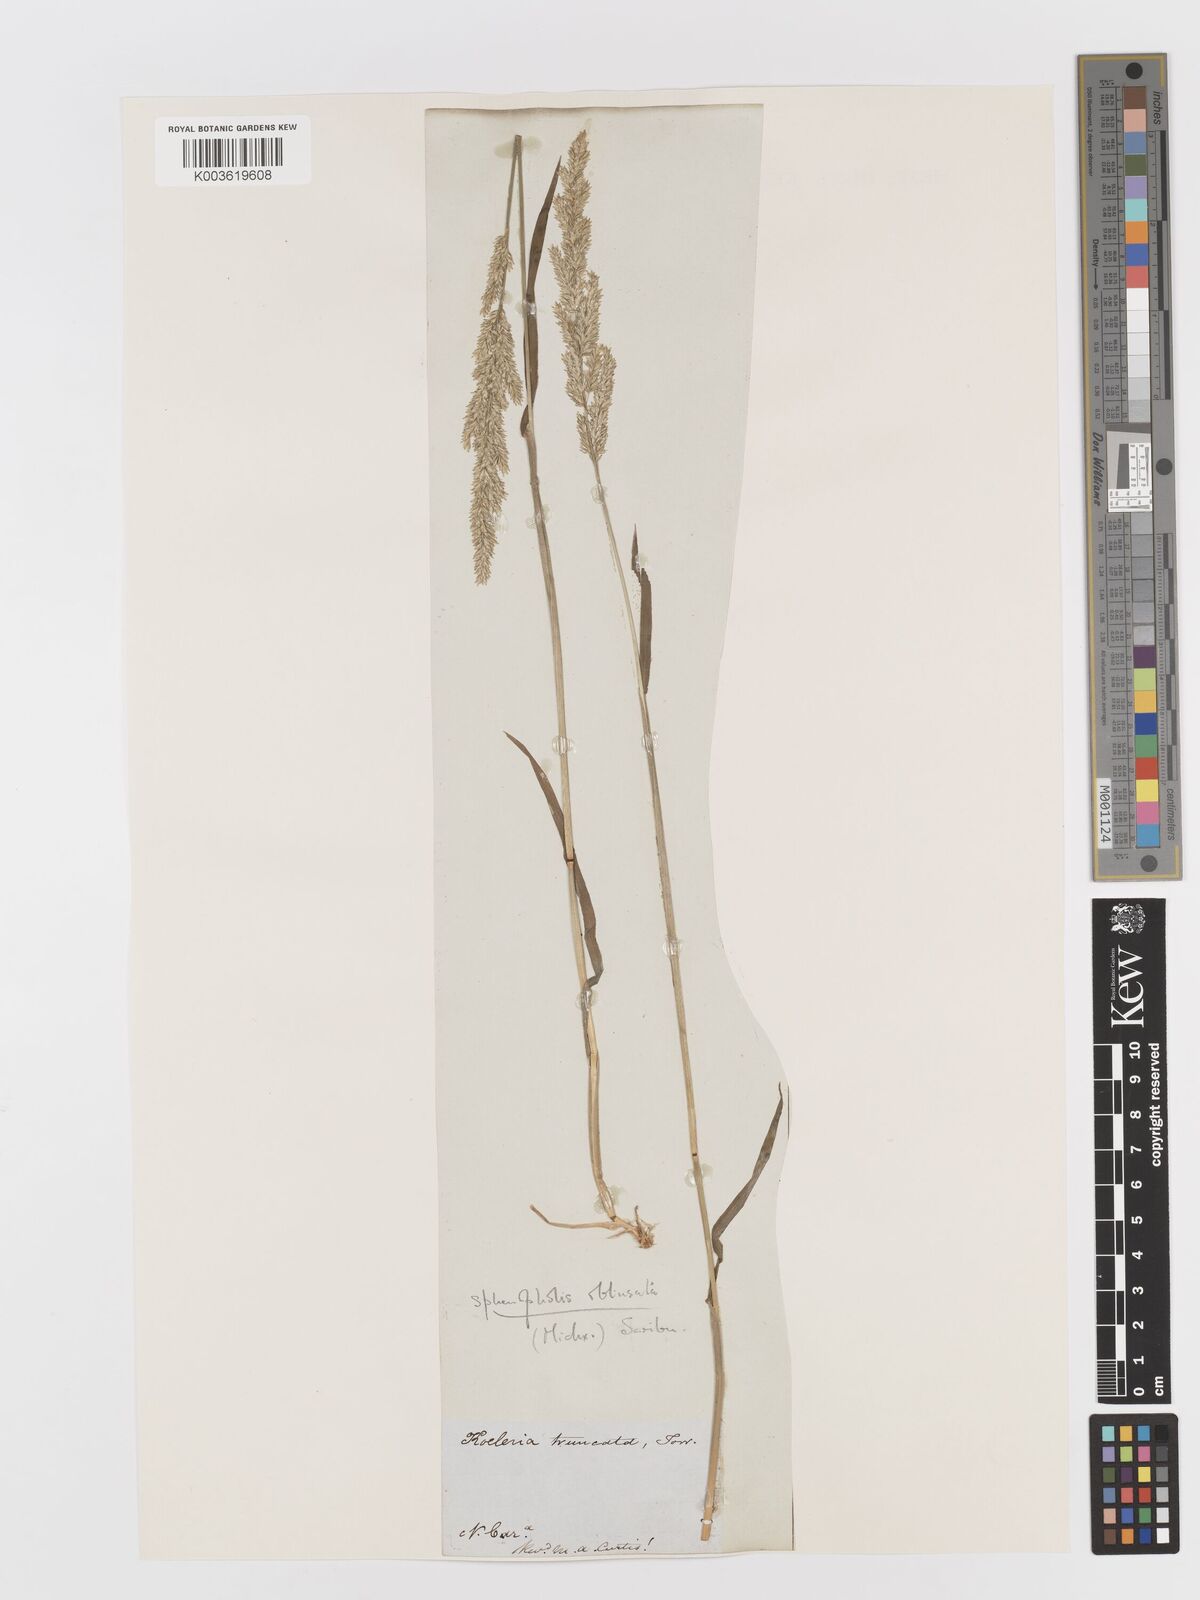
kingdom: Plantae
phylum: Tracheophyta
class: Liliopsida
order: Poales
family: Poaceae
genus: Sphenopholis
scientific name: Sphenopholis obtusata
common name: Prairie grass
